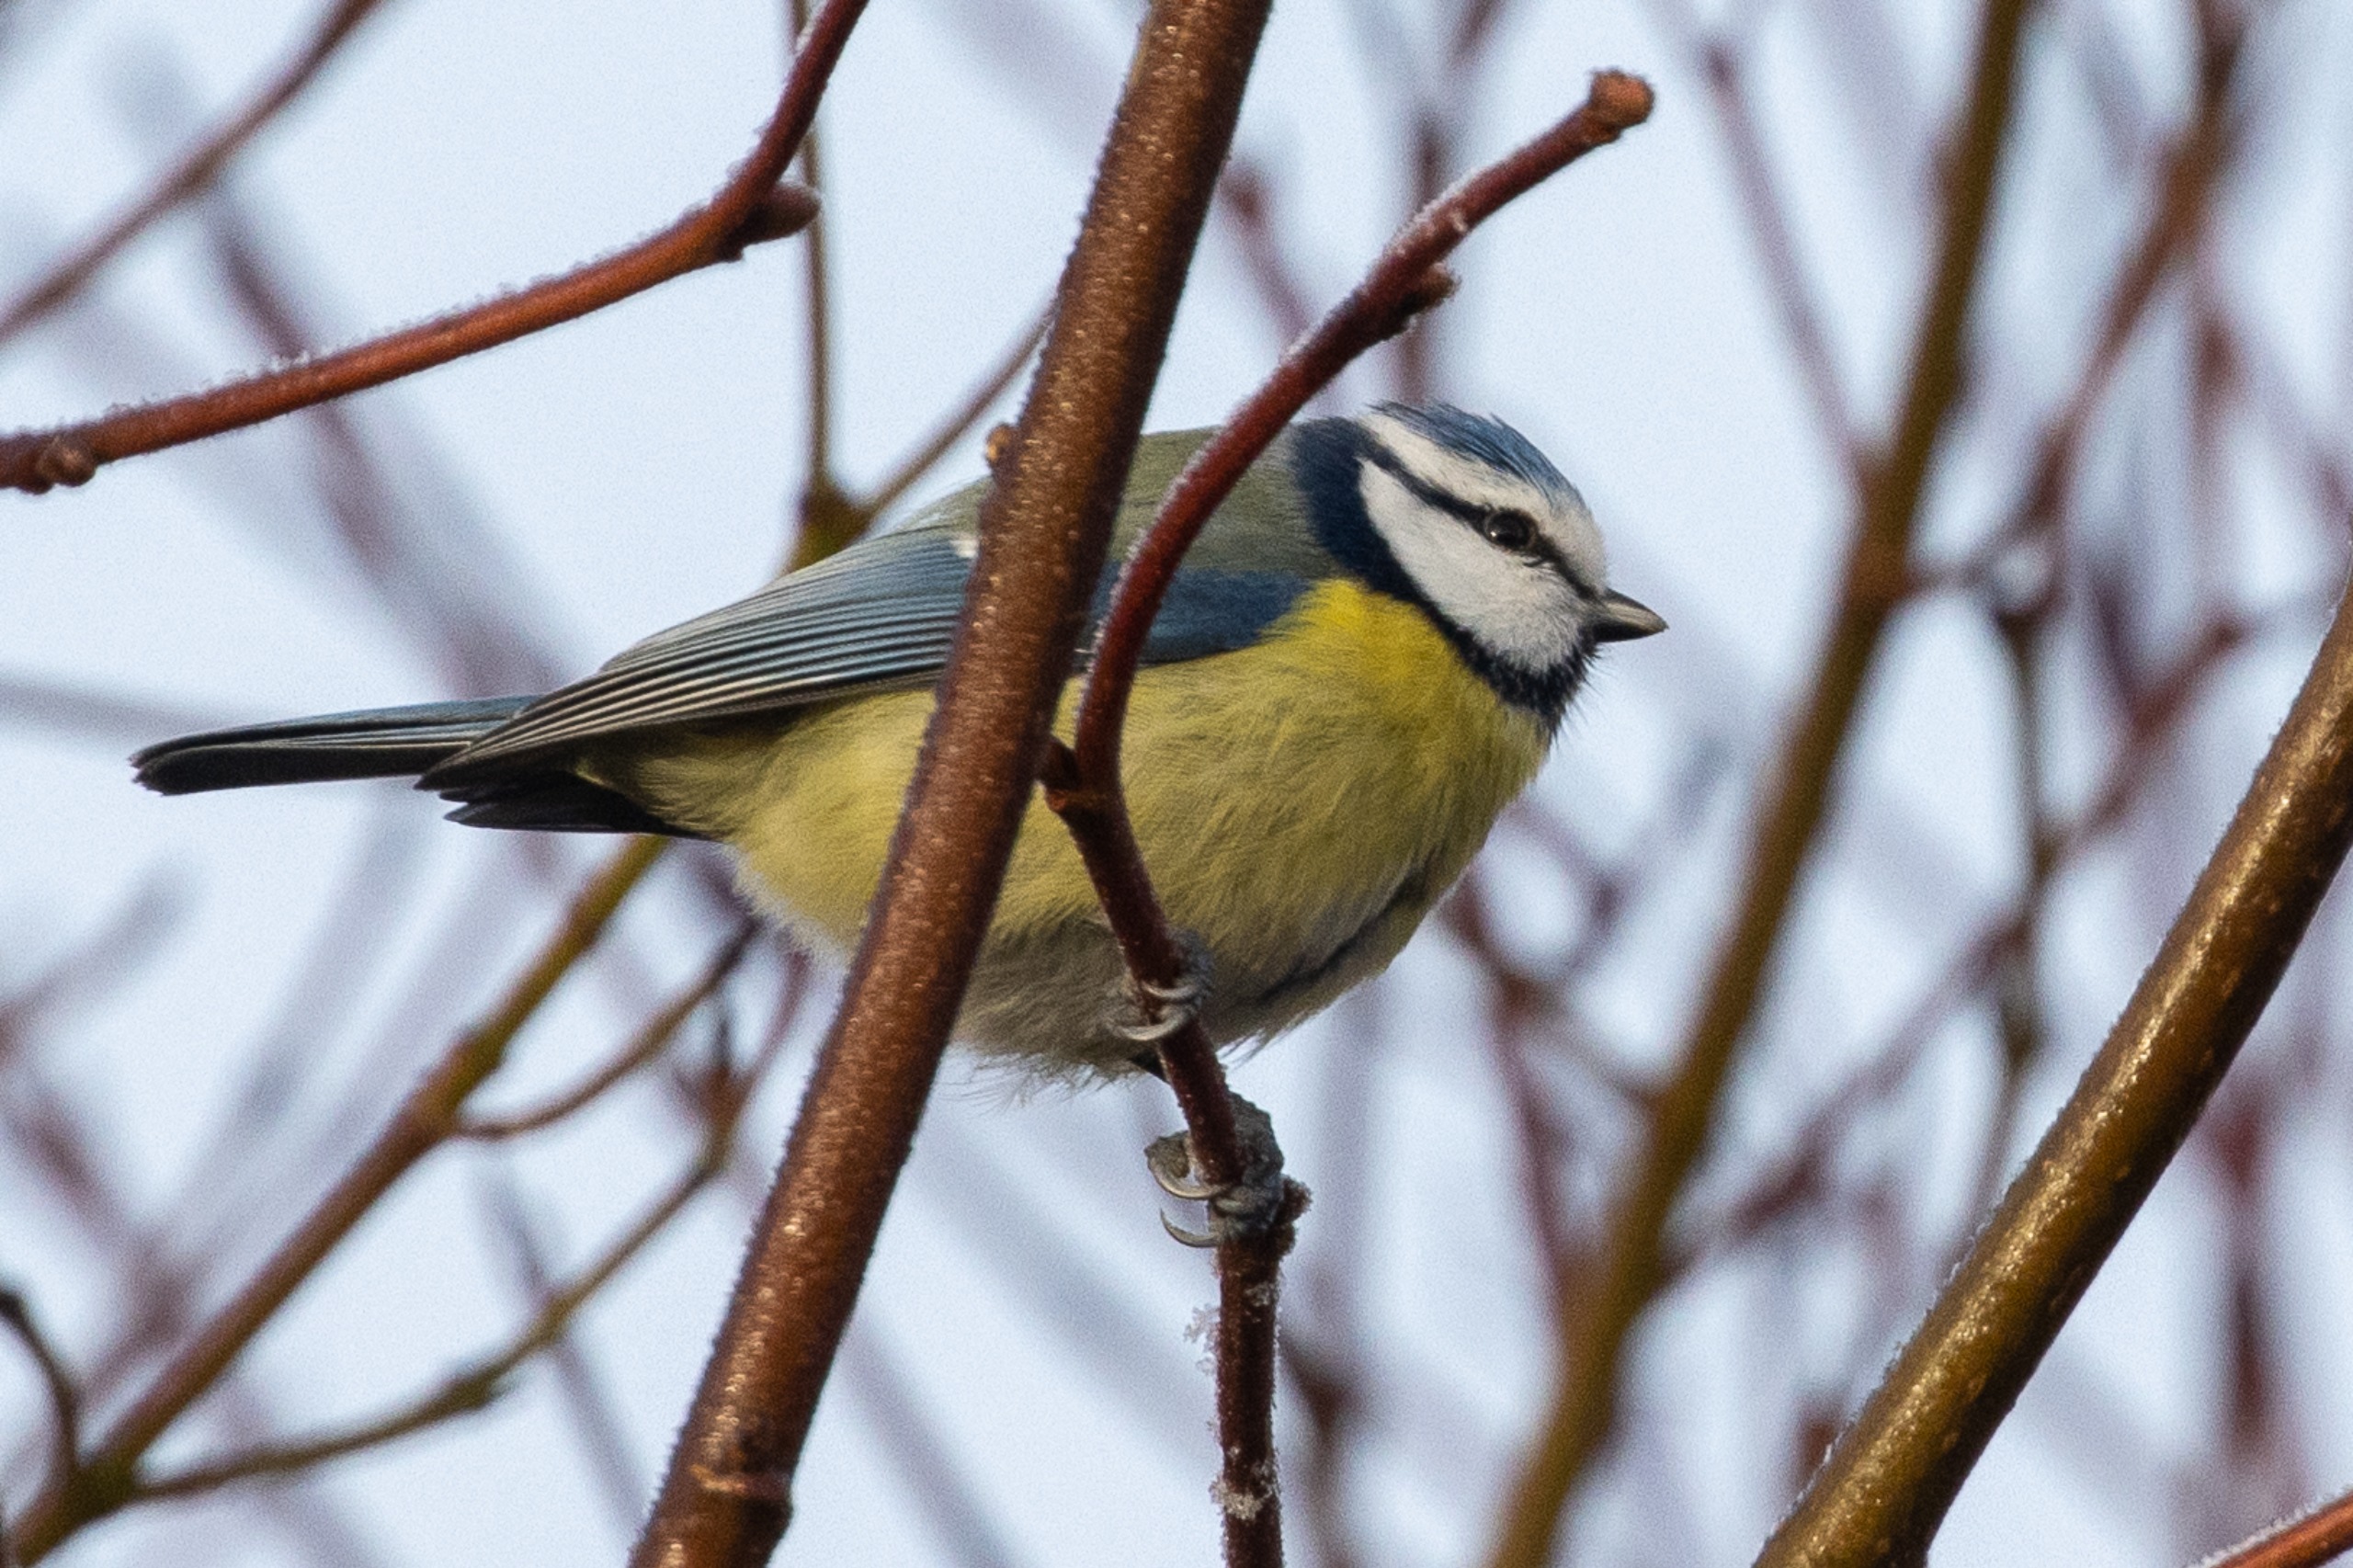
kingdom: Animalia
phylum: Chordata
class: Aves
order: Passeriformes
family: Paridae
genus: Cyanistes
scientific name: Cyanistes caeruleus
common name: Blåmejse
